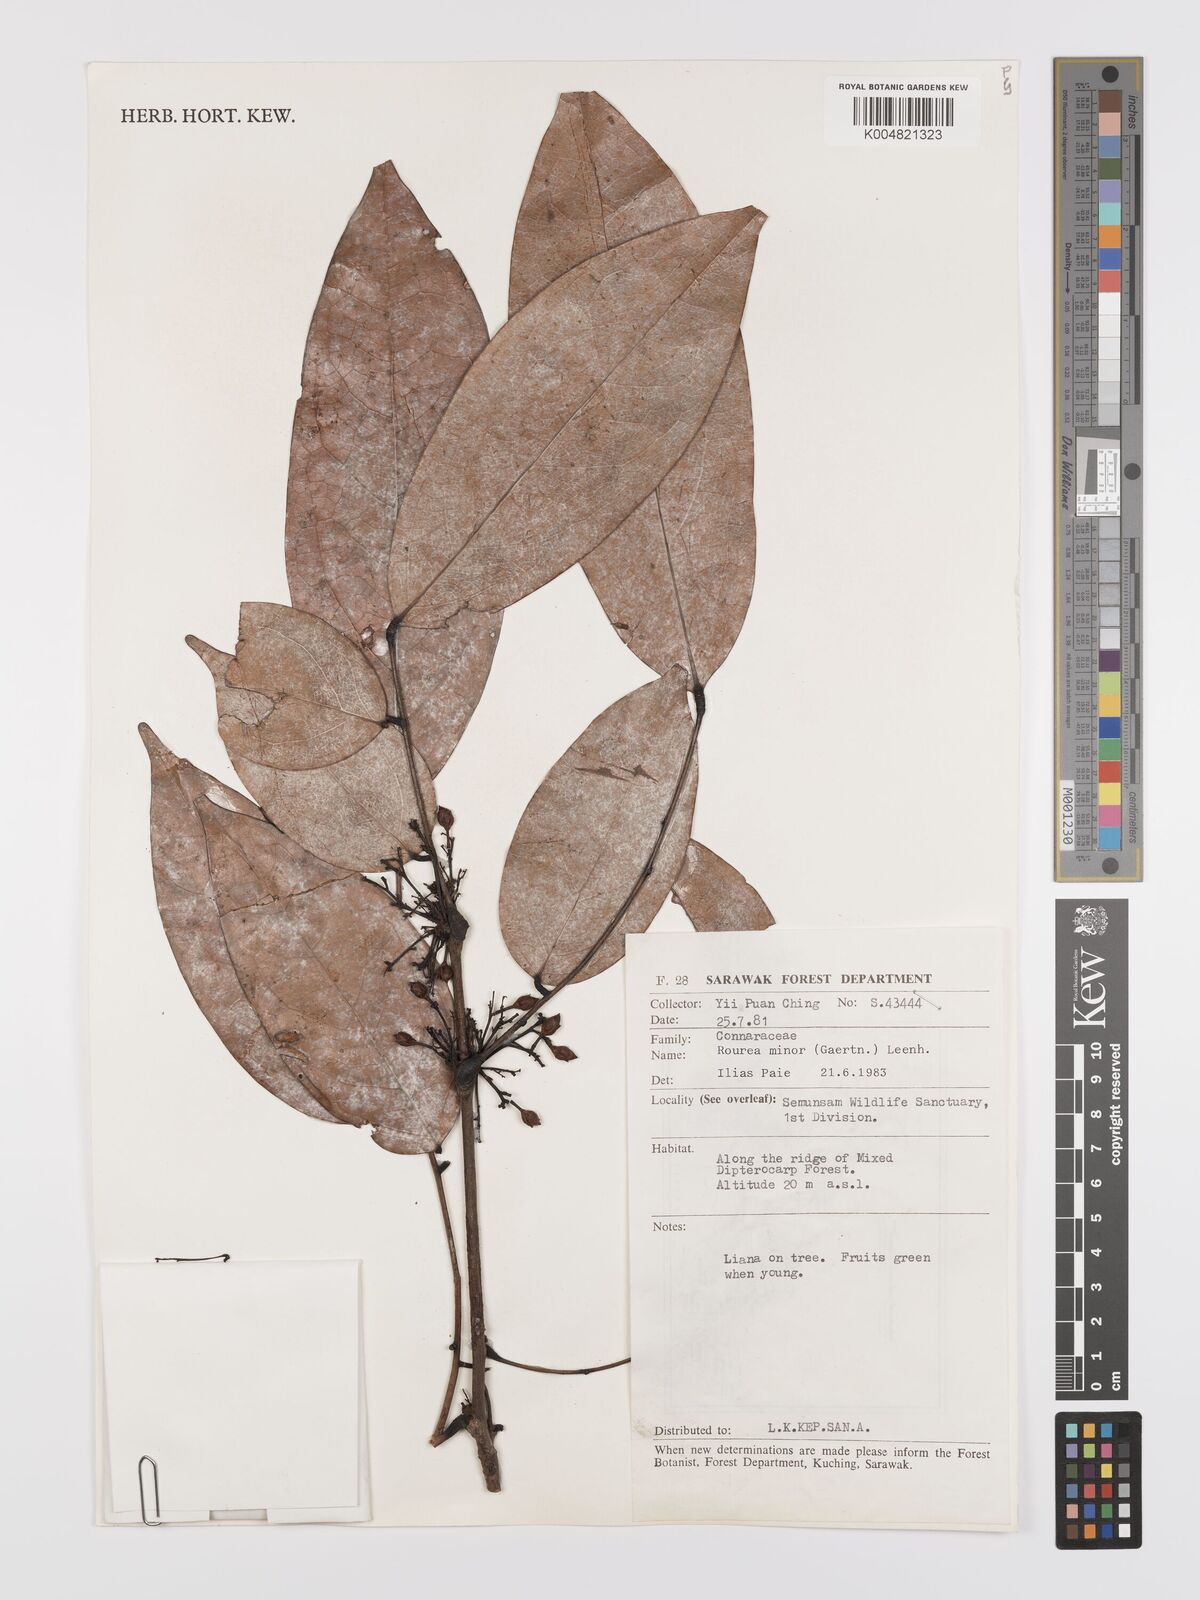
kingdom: Plantae
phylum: Tracheophyta
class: Magnoliopsida
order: Oxalidales
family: Connaraceae
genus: Rourea
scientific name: Rourea minor
